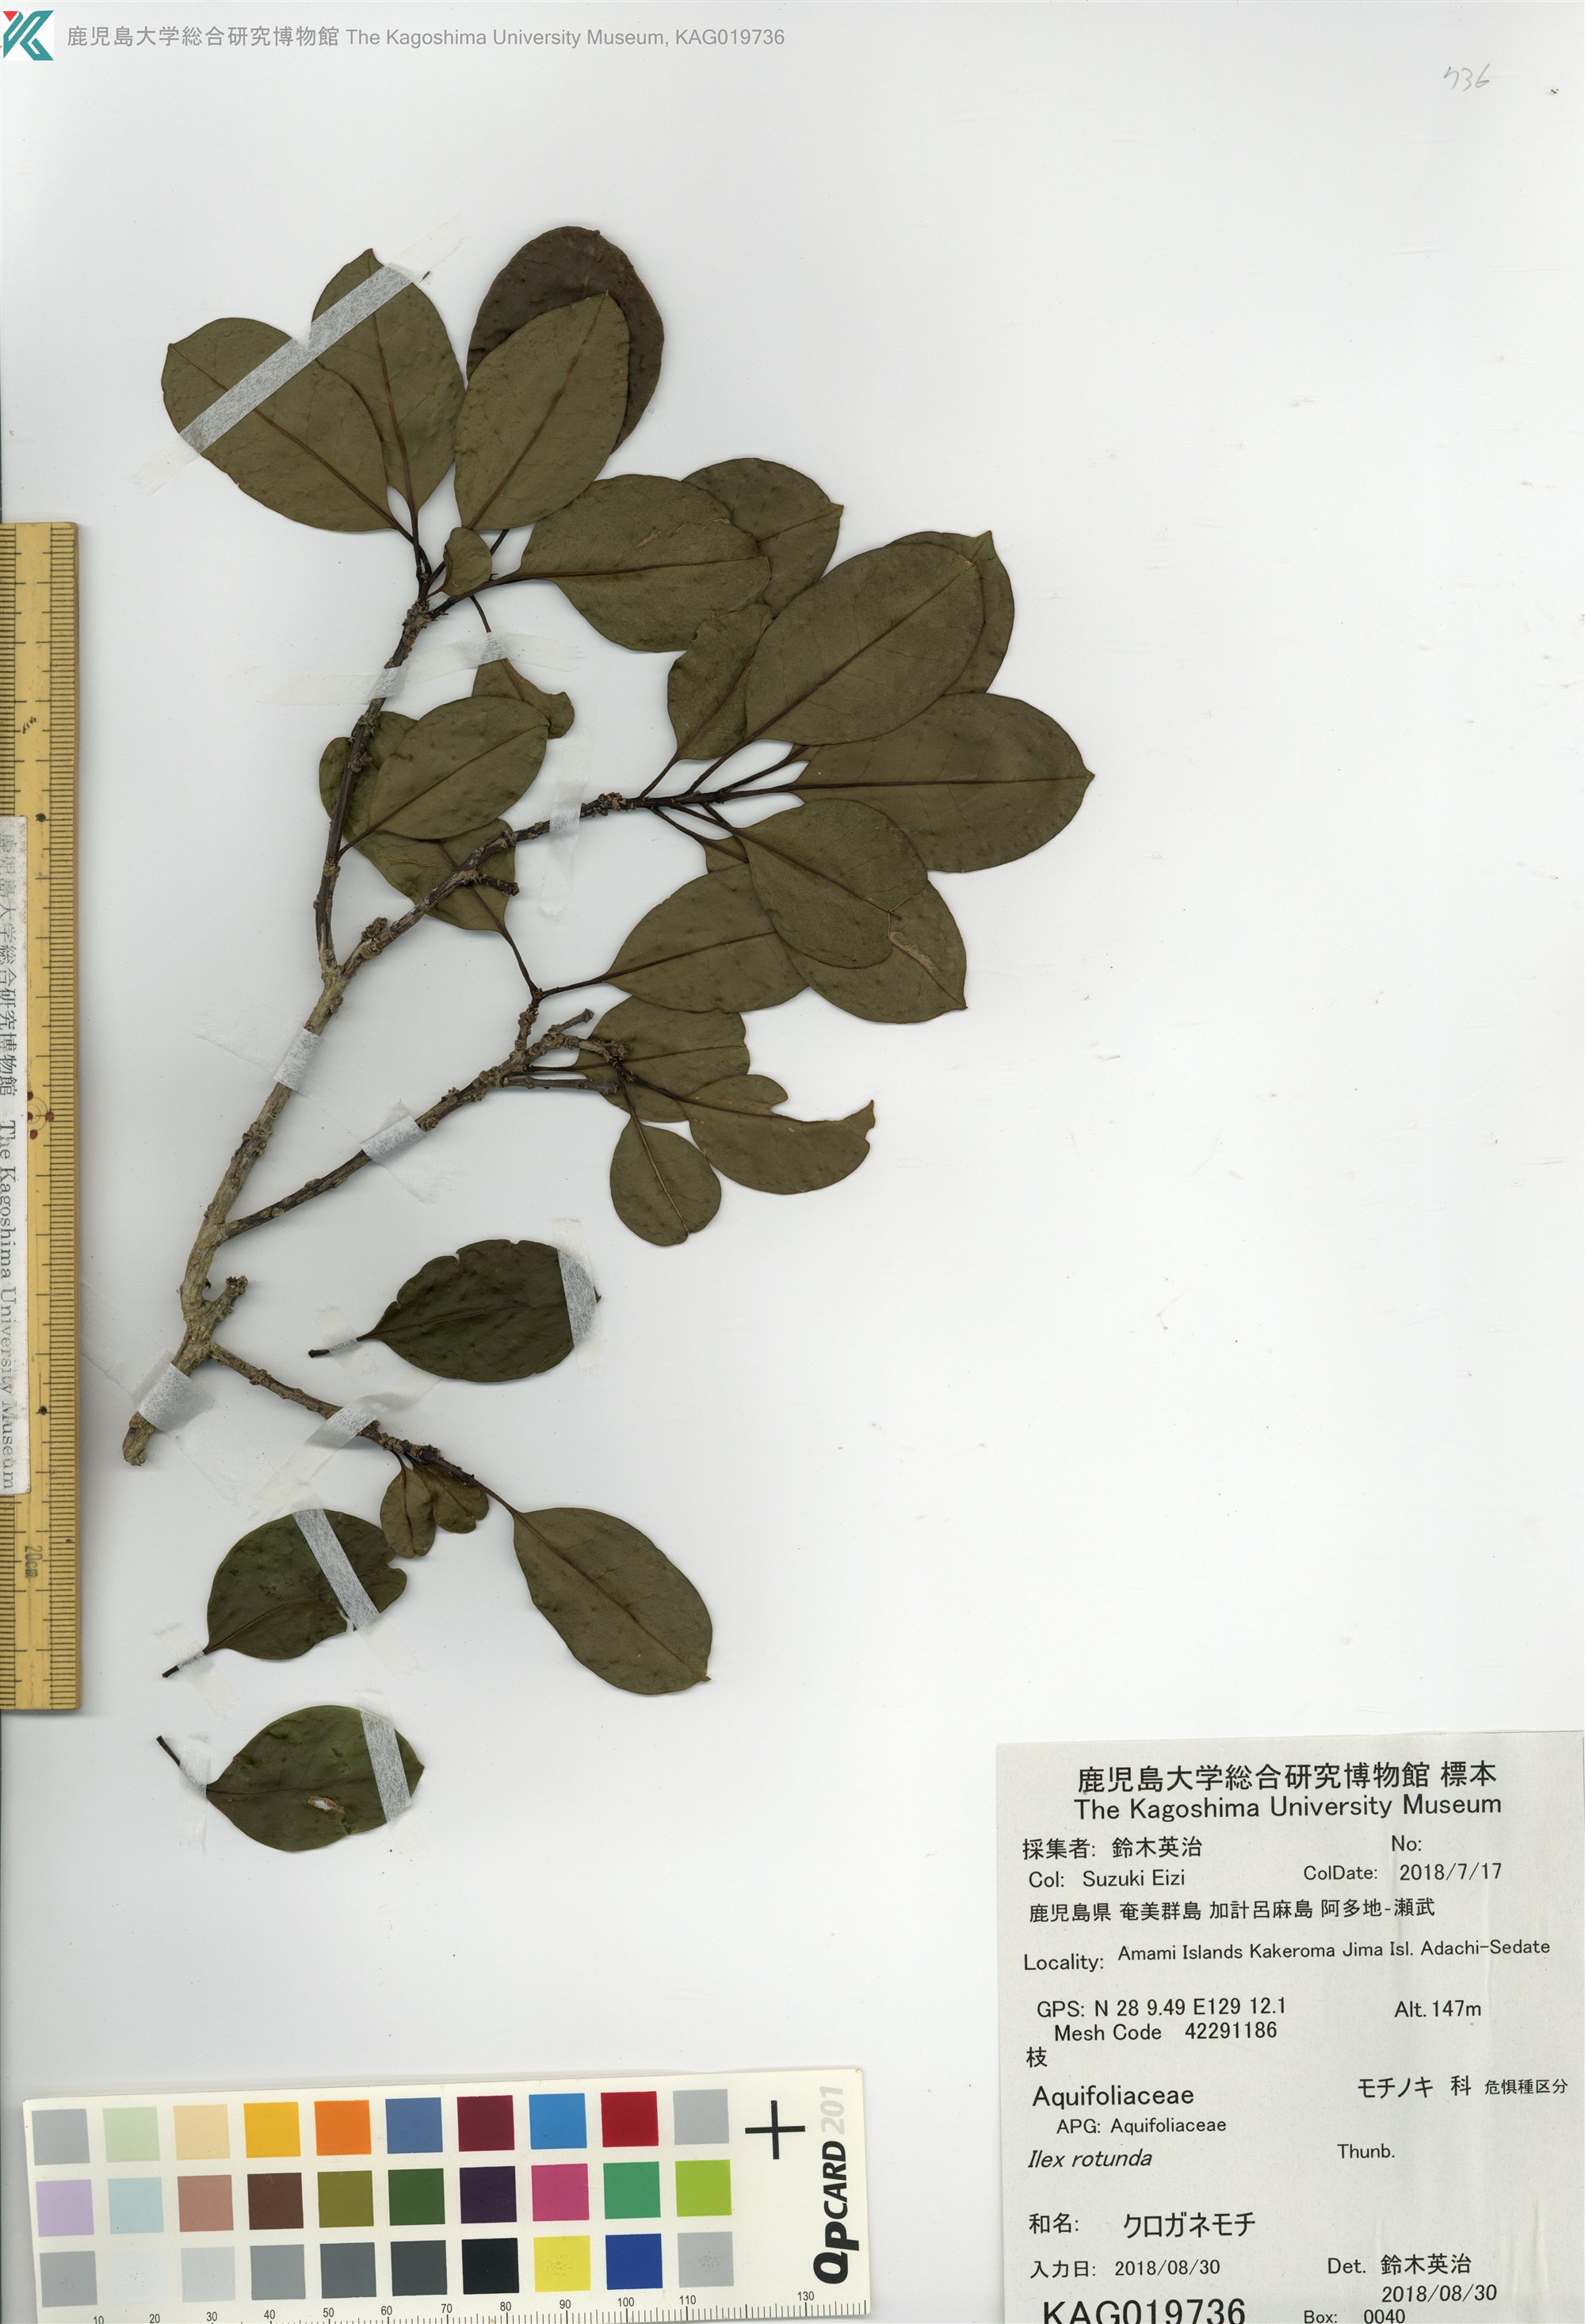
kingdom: Plantae
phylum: Tracheophyta
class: Magnoliopsida
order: Aquifoliales
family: Aquifoliaceae
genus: Ilex
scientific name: Ilex rotunda
